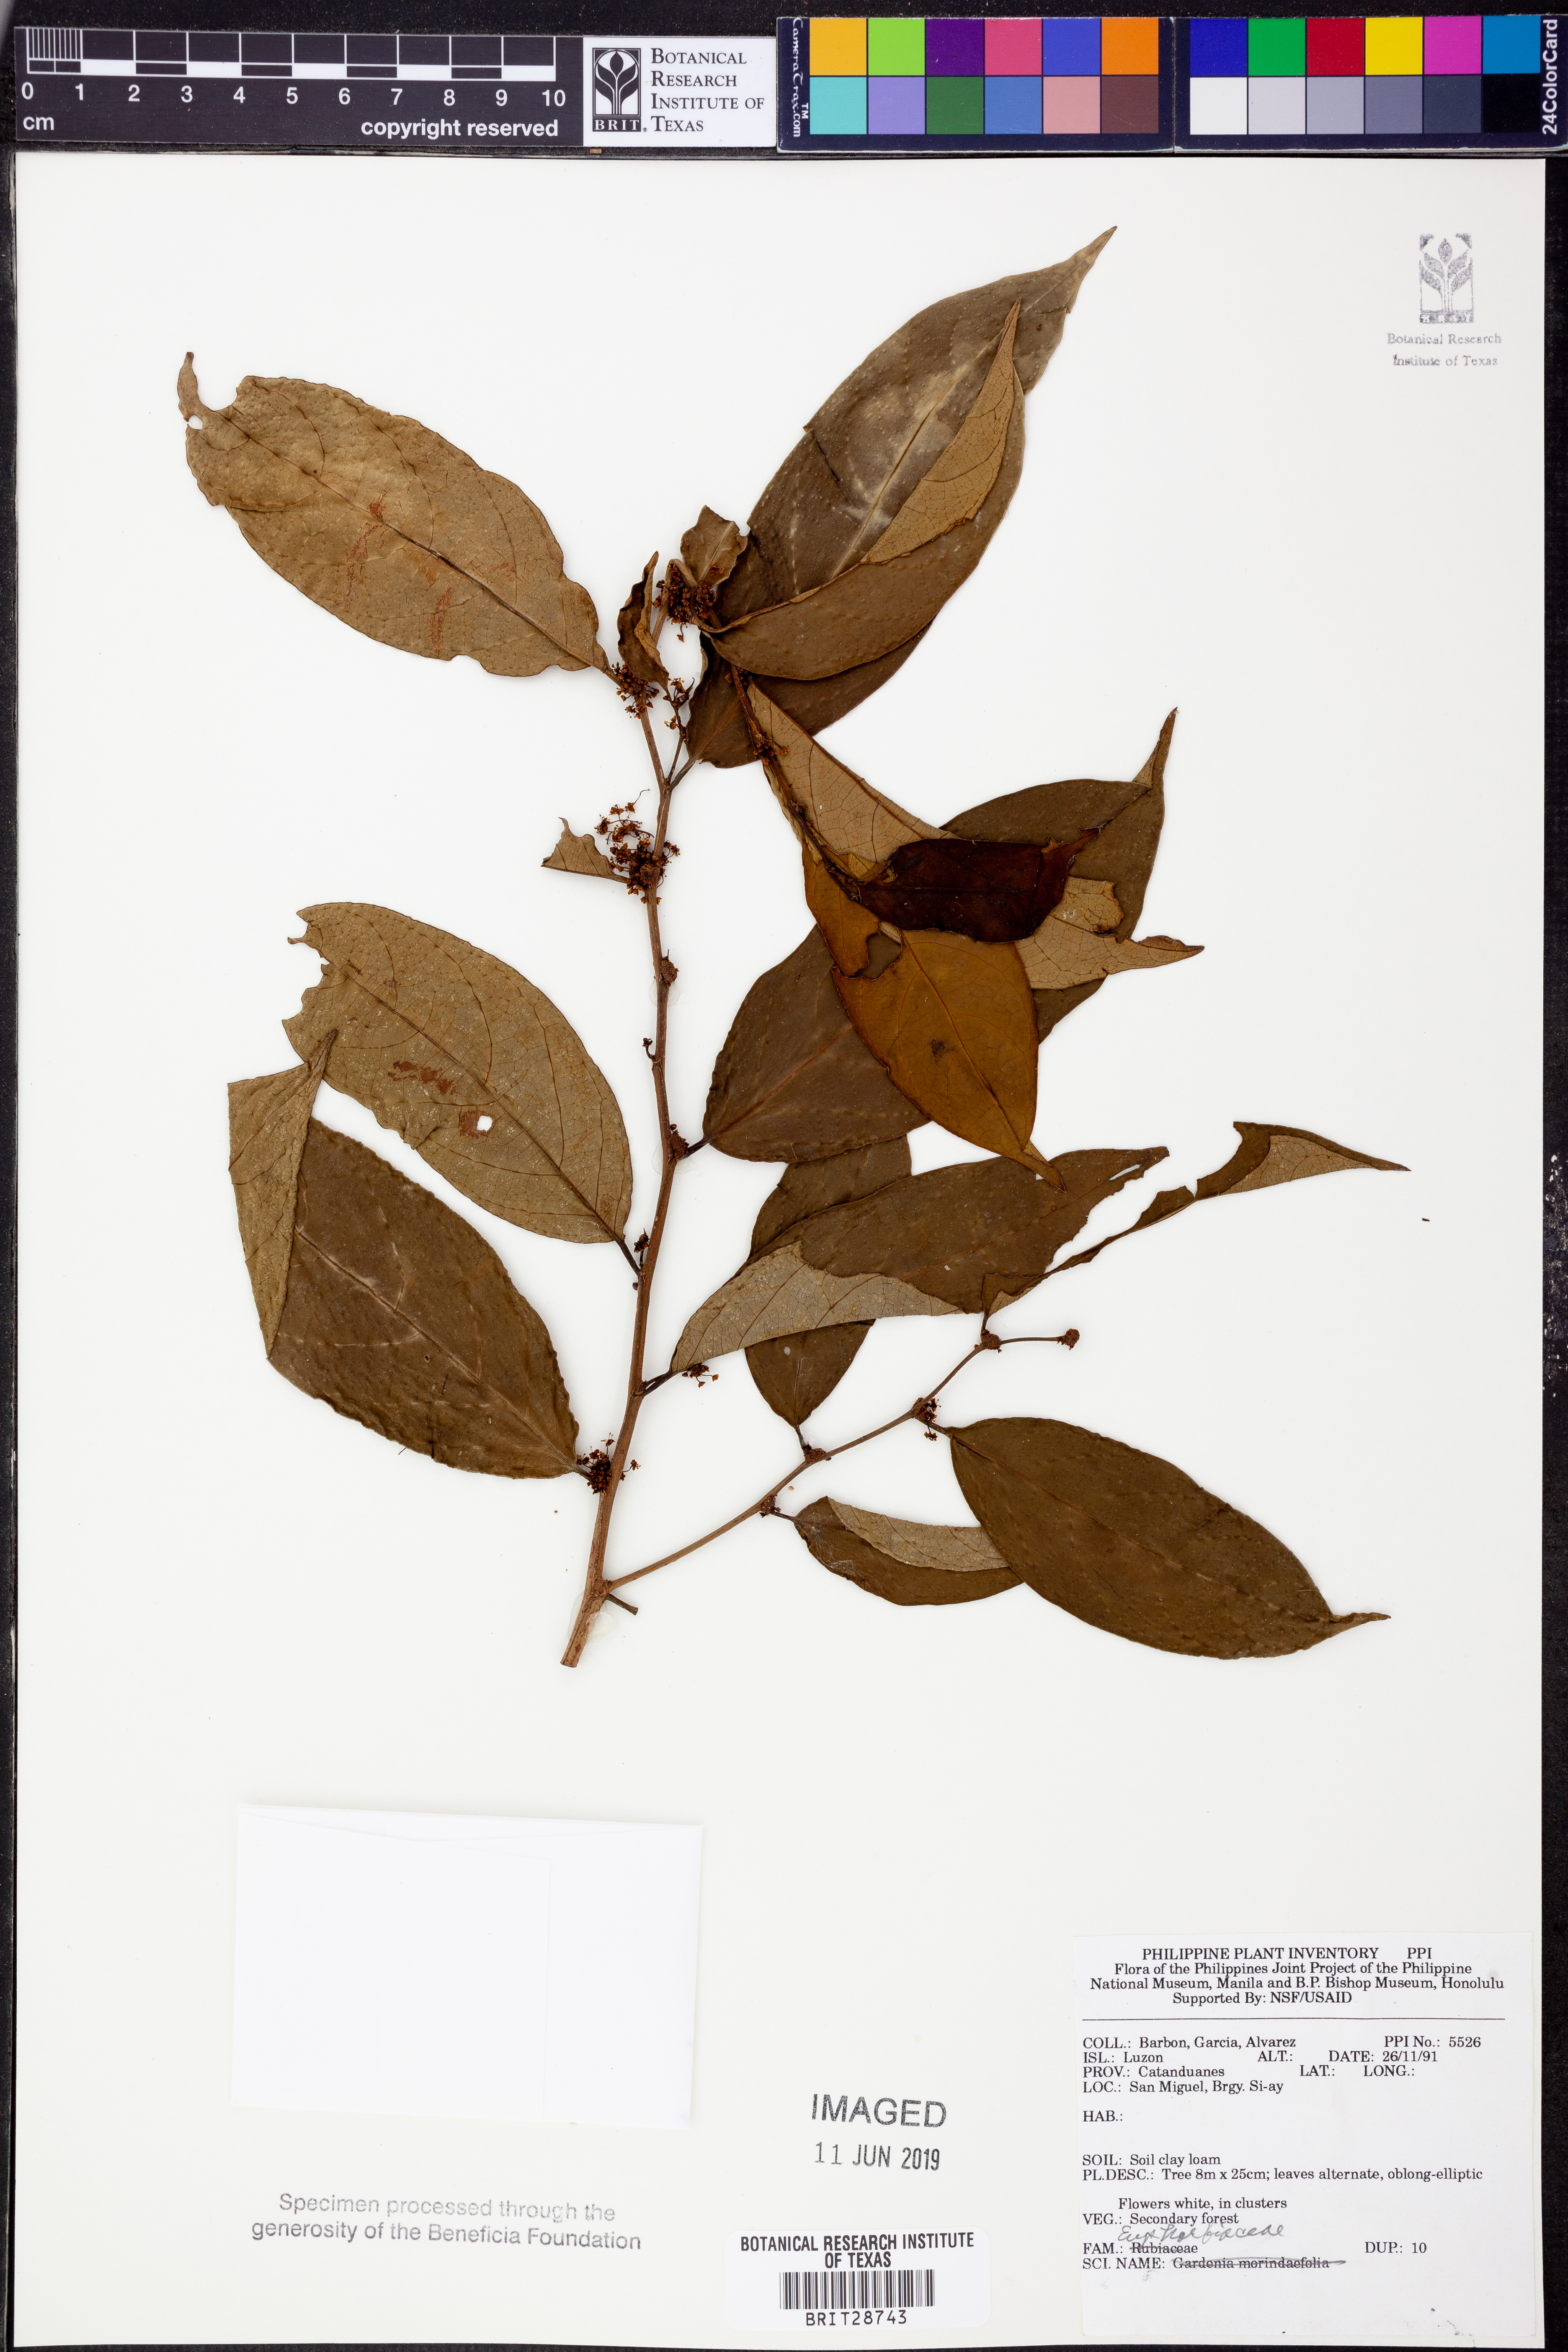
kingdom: Plantae
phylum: Tracheophyta
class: Magnoliopsida
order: Malpighiales
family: Euphorbiaceae
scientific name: Euphorbiaceae
